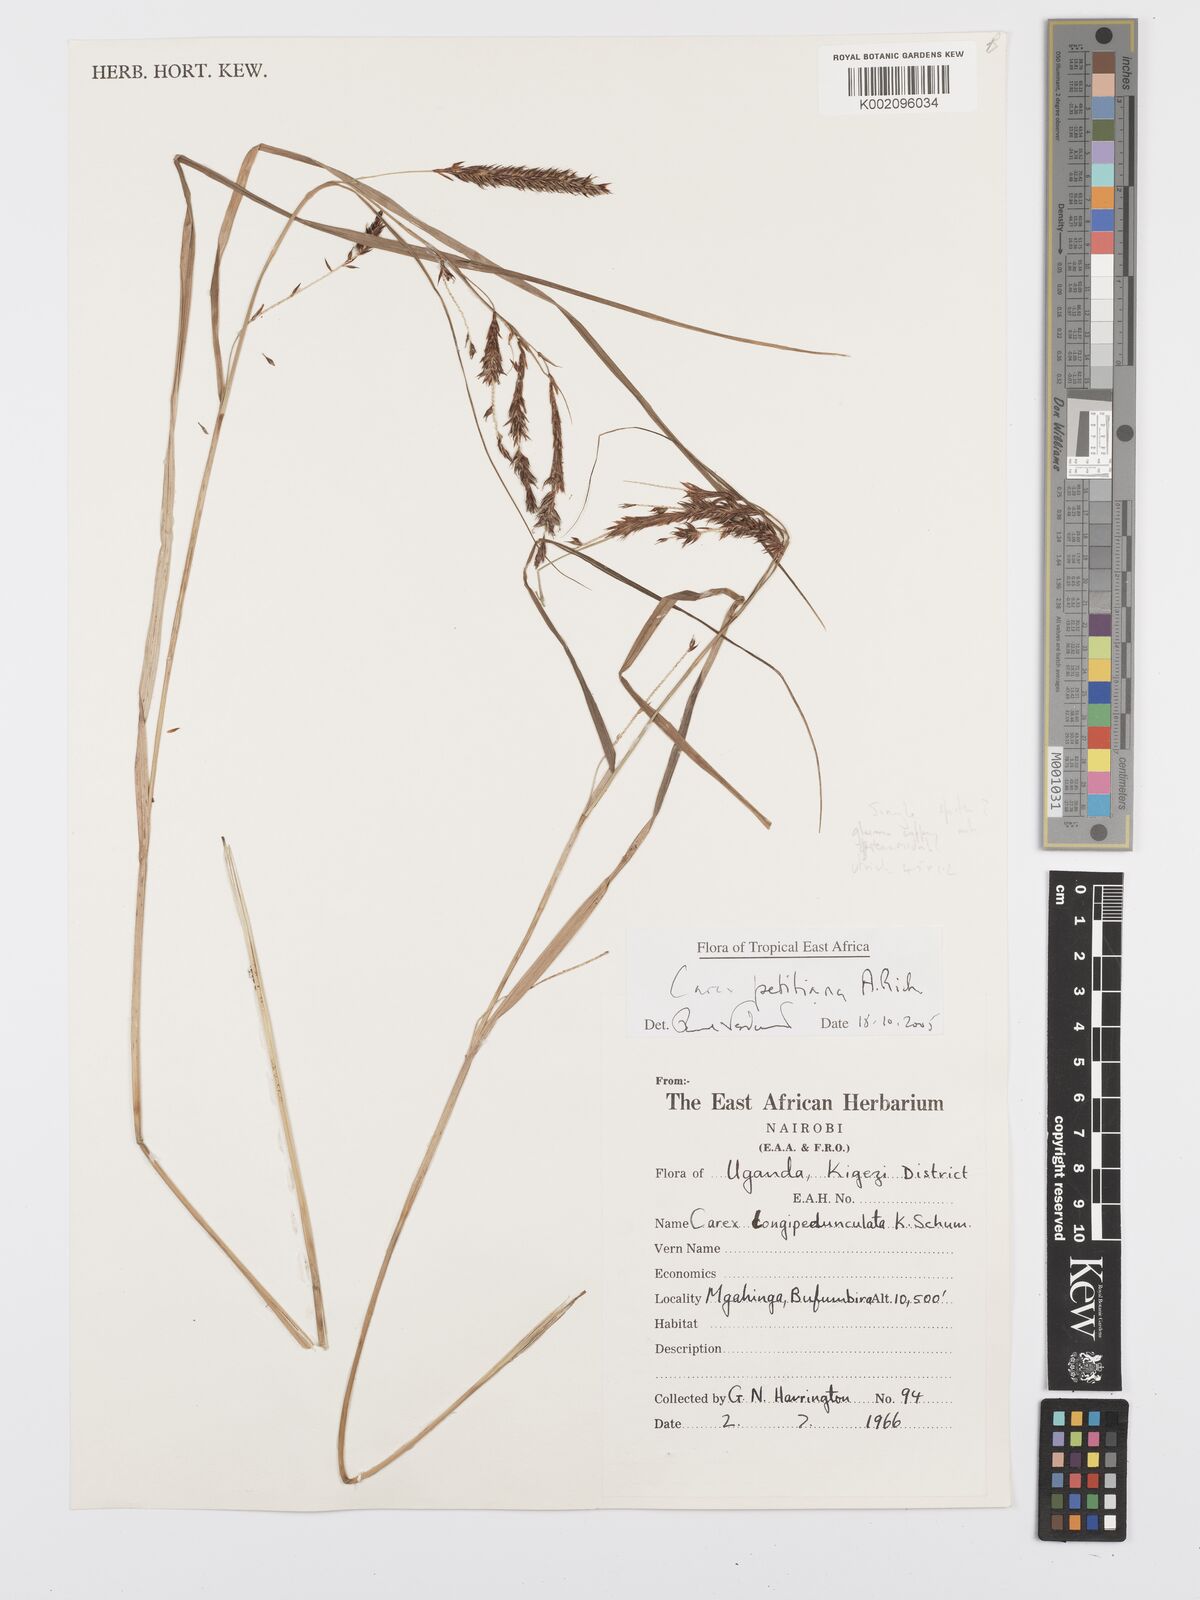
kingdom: Plantae
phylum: Tracheophyta
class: Liliopsida
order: Poales
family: Cyperaceae
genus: Carex
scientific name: Carex mannii
